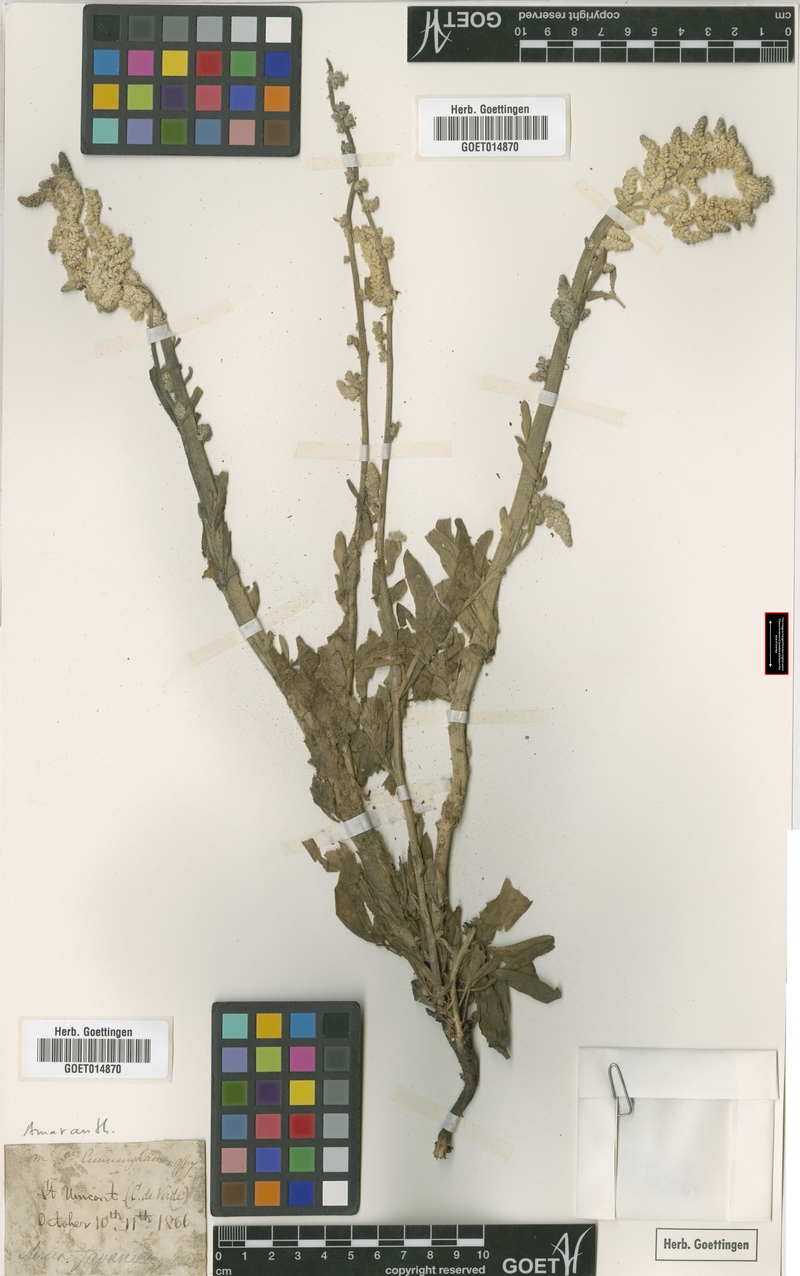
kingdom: Plantae
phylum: Tracheophyta
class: Magnoliopsida
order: Caryophyllales
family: Amaranthaceae
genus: Aerva
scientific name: Aerva javanica
